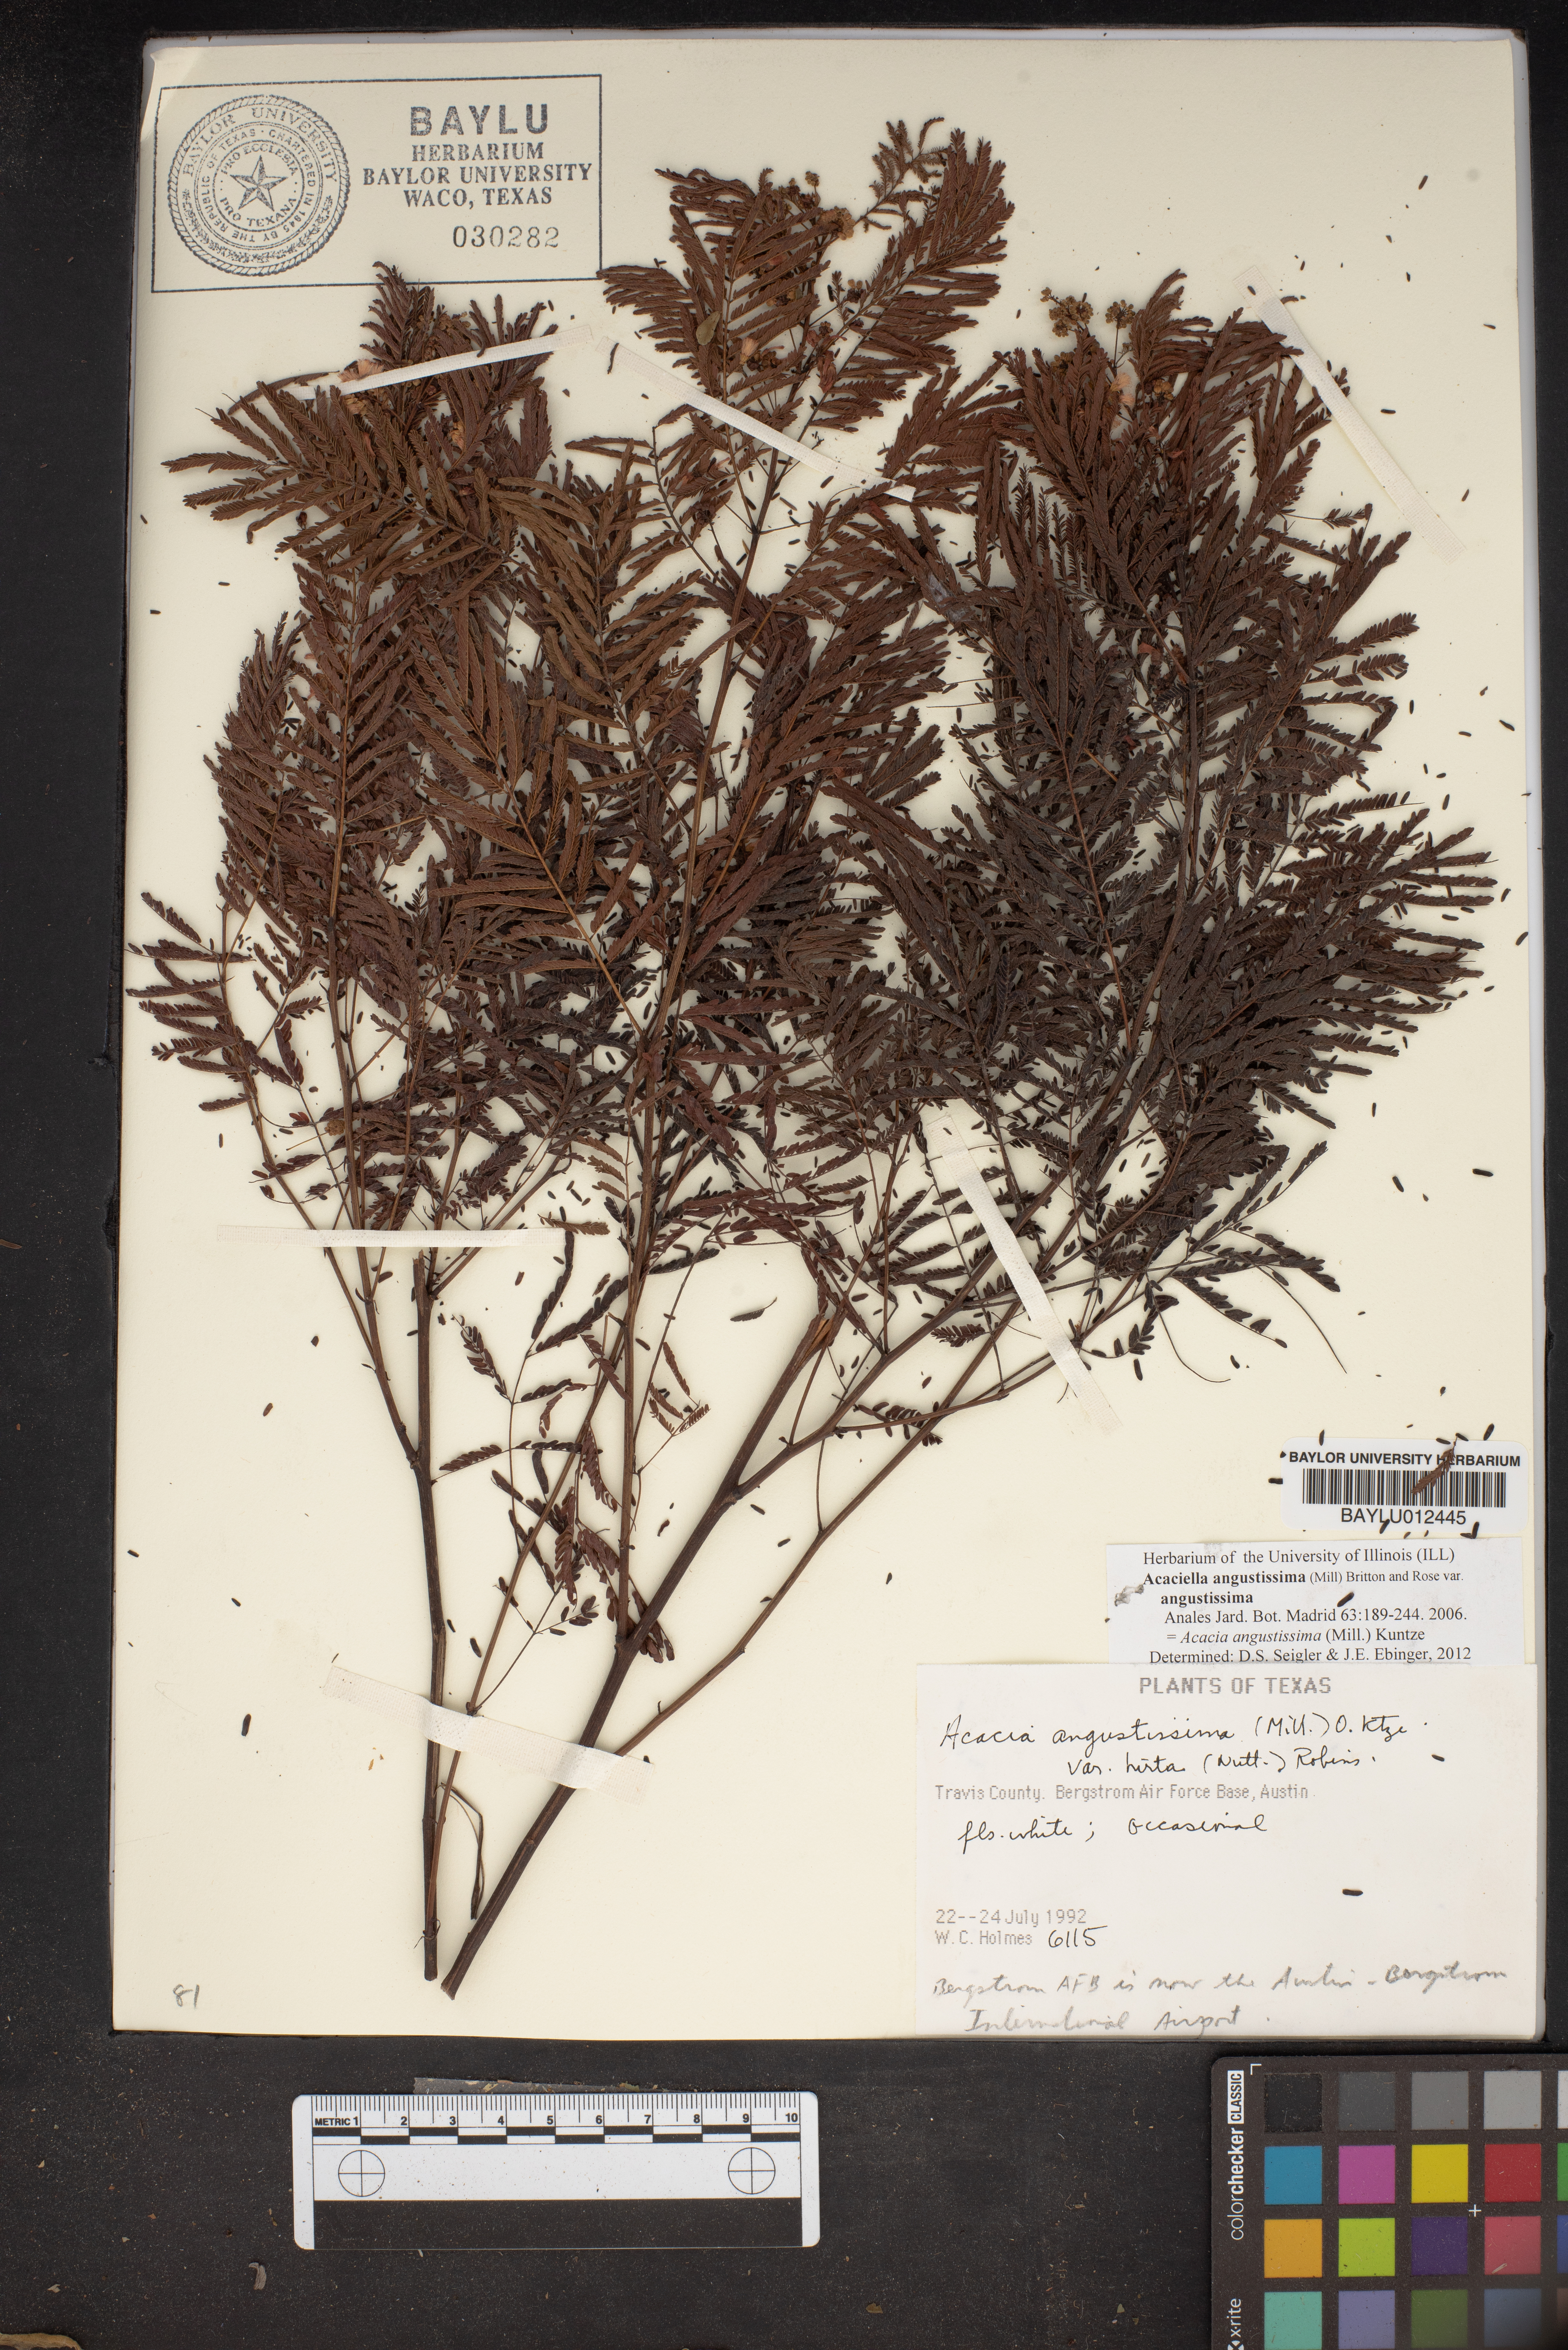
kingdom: Plantae
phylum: Tracheophyta
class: Magnoliopsida
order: Fabales
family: Fabaceae
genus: Acaciella
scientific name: Acaciella angustissima
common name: Prairie acacia
